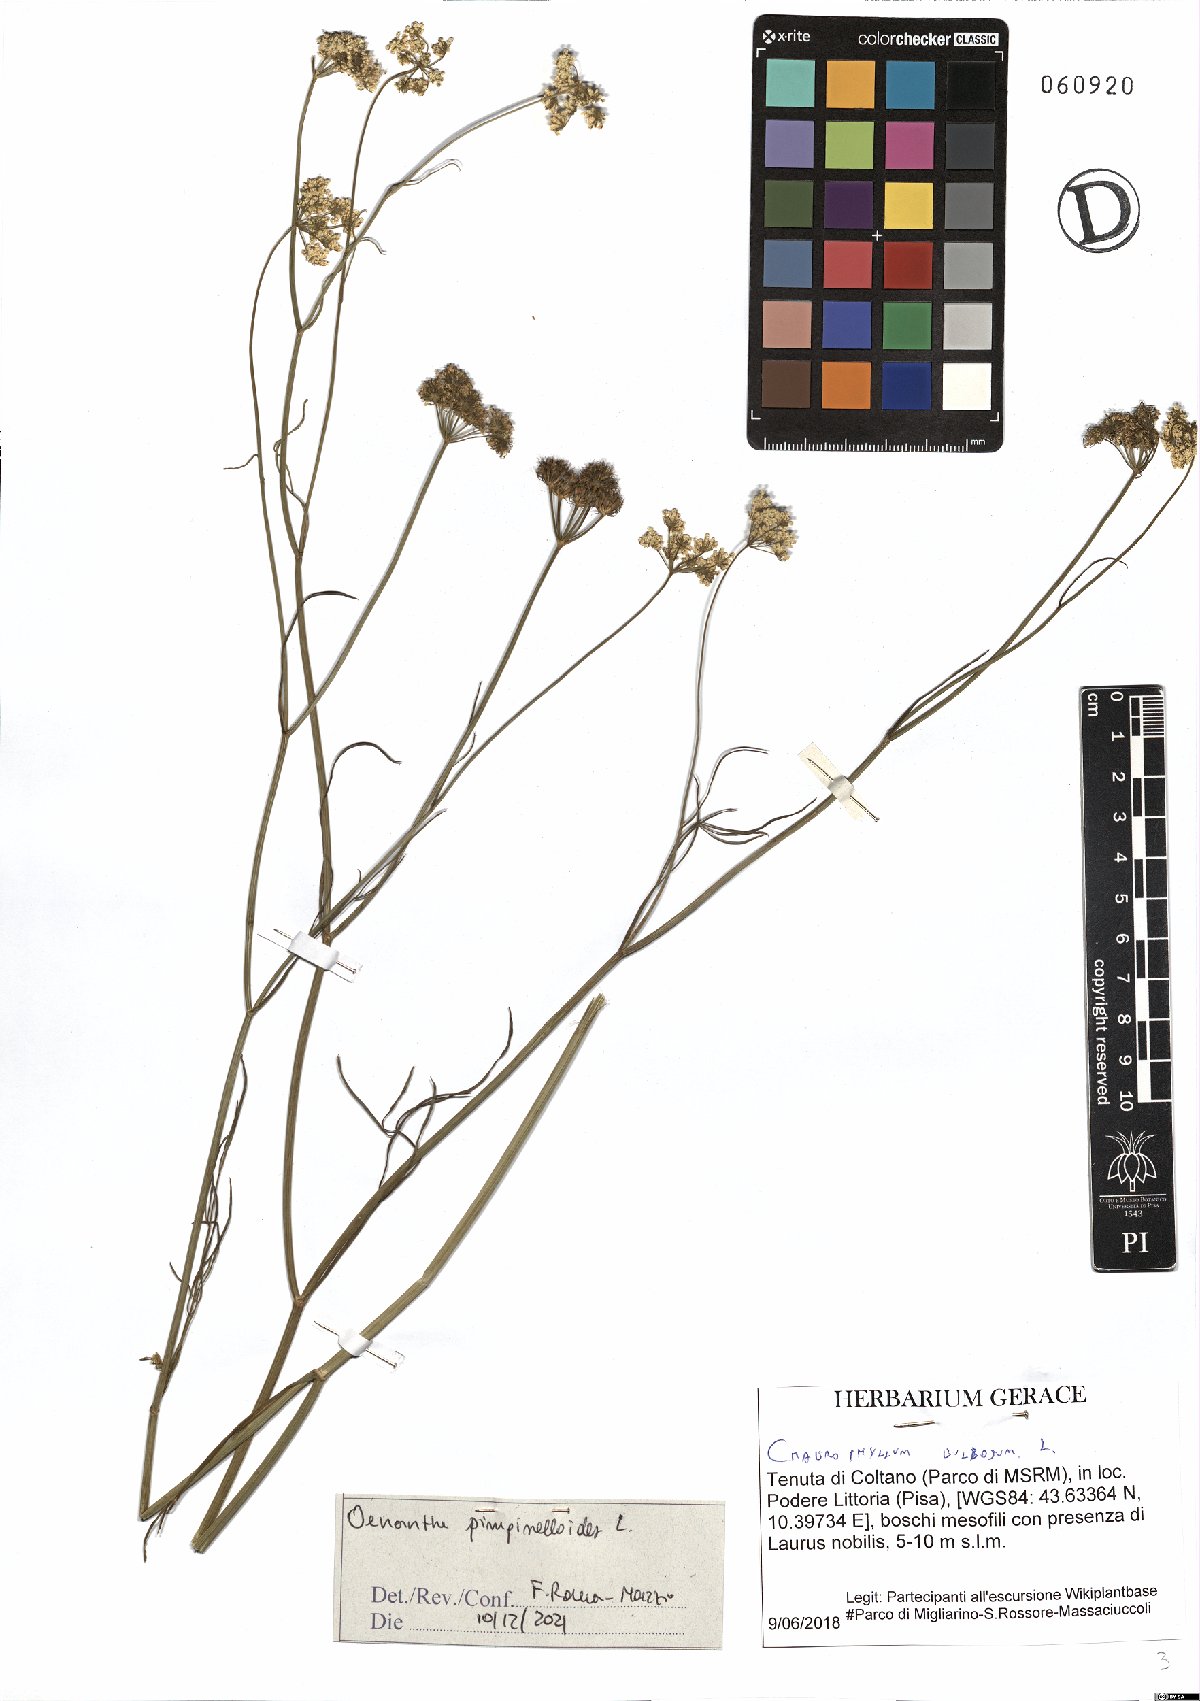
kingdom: Plantae
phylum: Tracheophyta
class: Magnoliopsida
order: Apiales
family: Apiaceae
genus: Oenanthe
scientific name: Oenanthe pimpinelloides
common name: Corky-fruited water-dropwort
